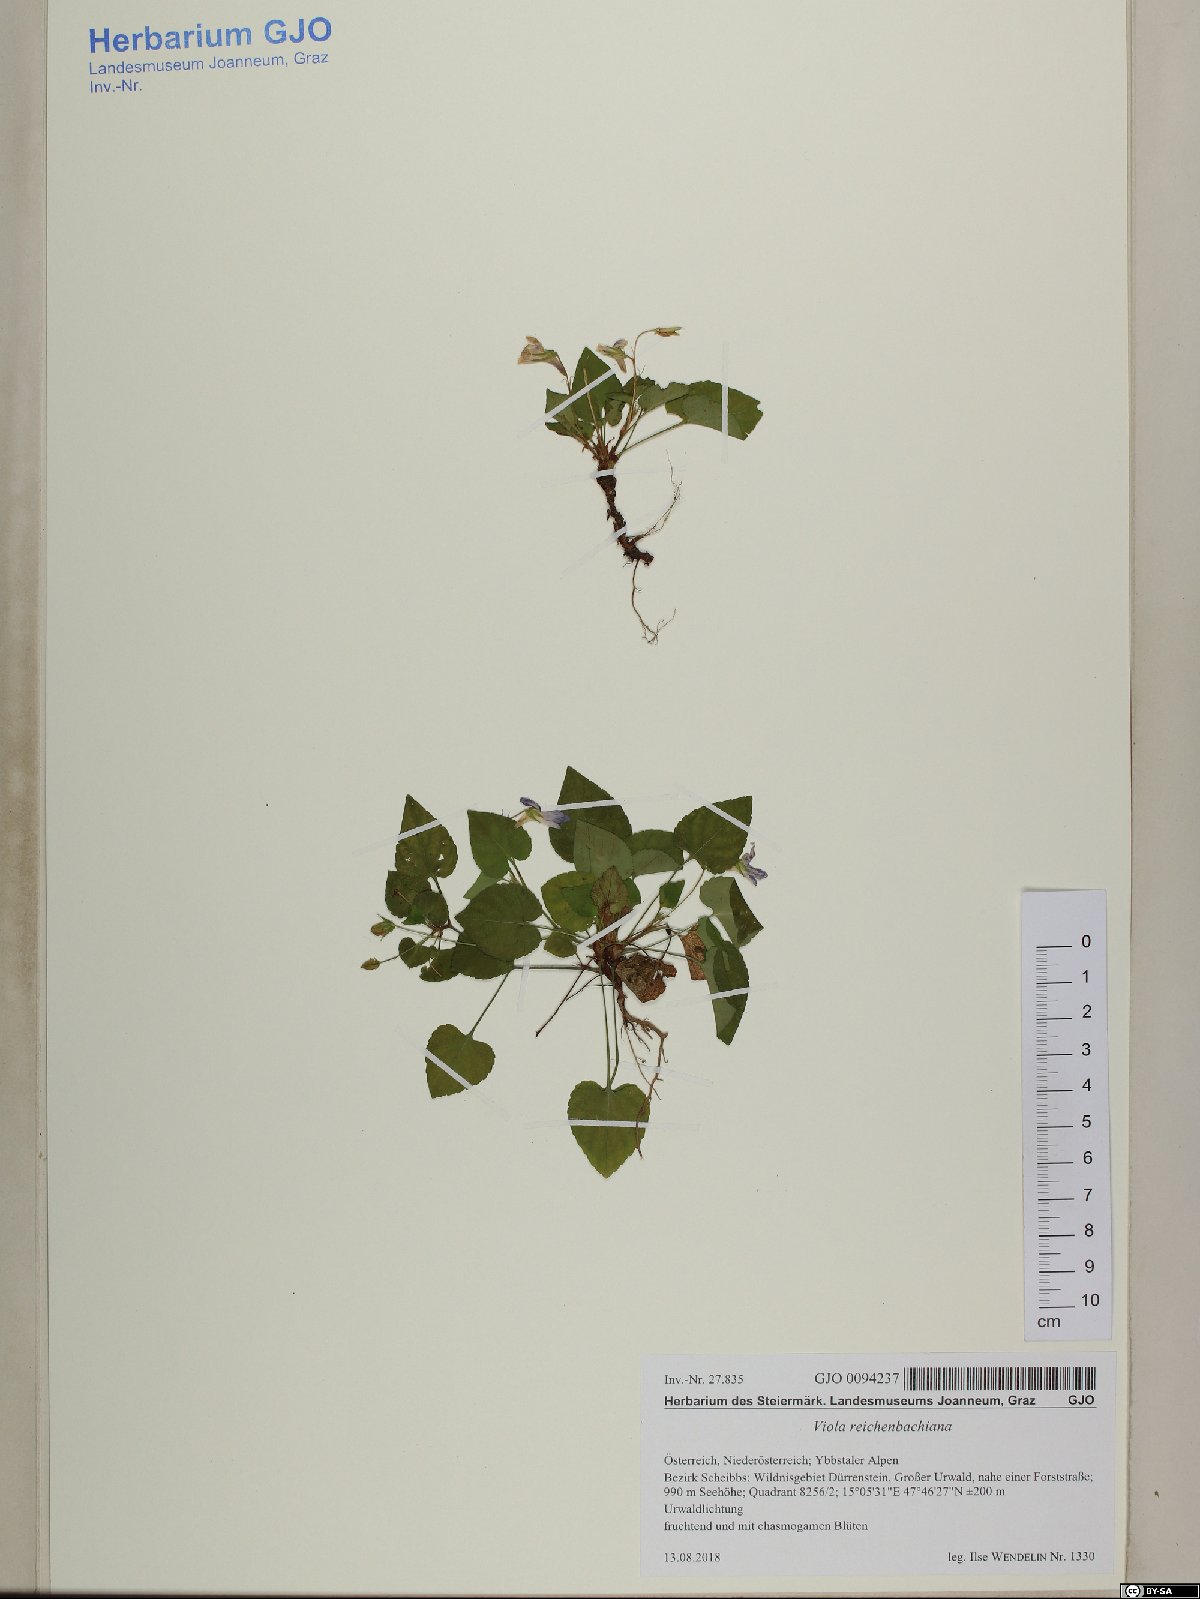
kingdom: Plantae
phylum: Tracheophyta
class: Magnoliopsida
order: Malpighiales
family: Violaceae
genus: Viola
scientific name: Viola reichenbachiana
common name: Early dog-violet
